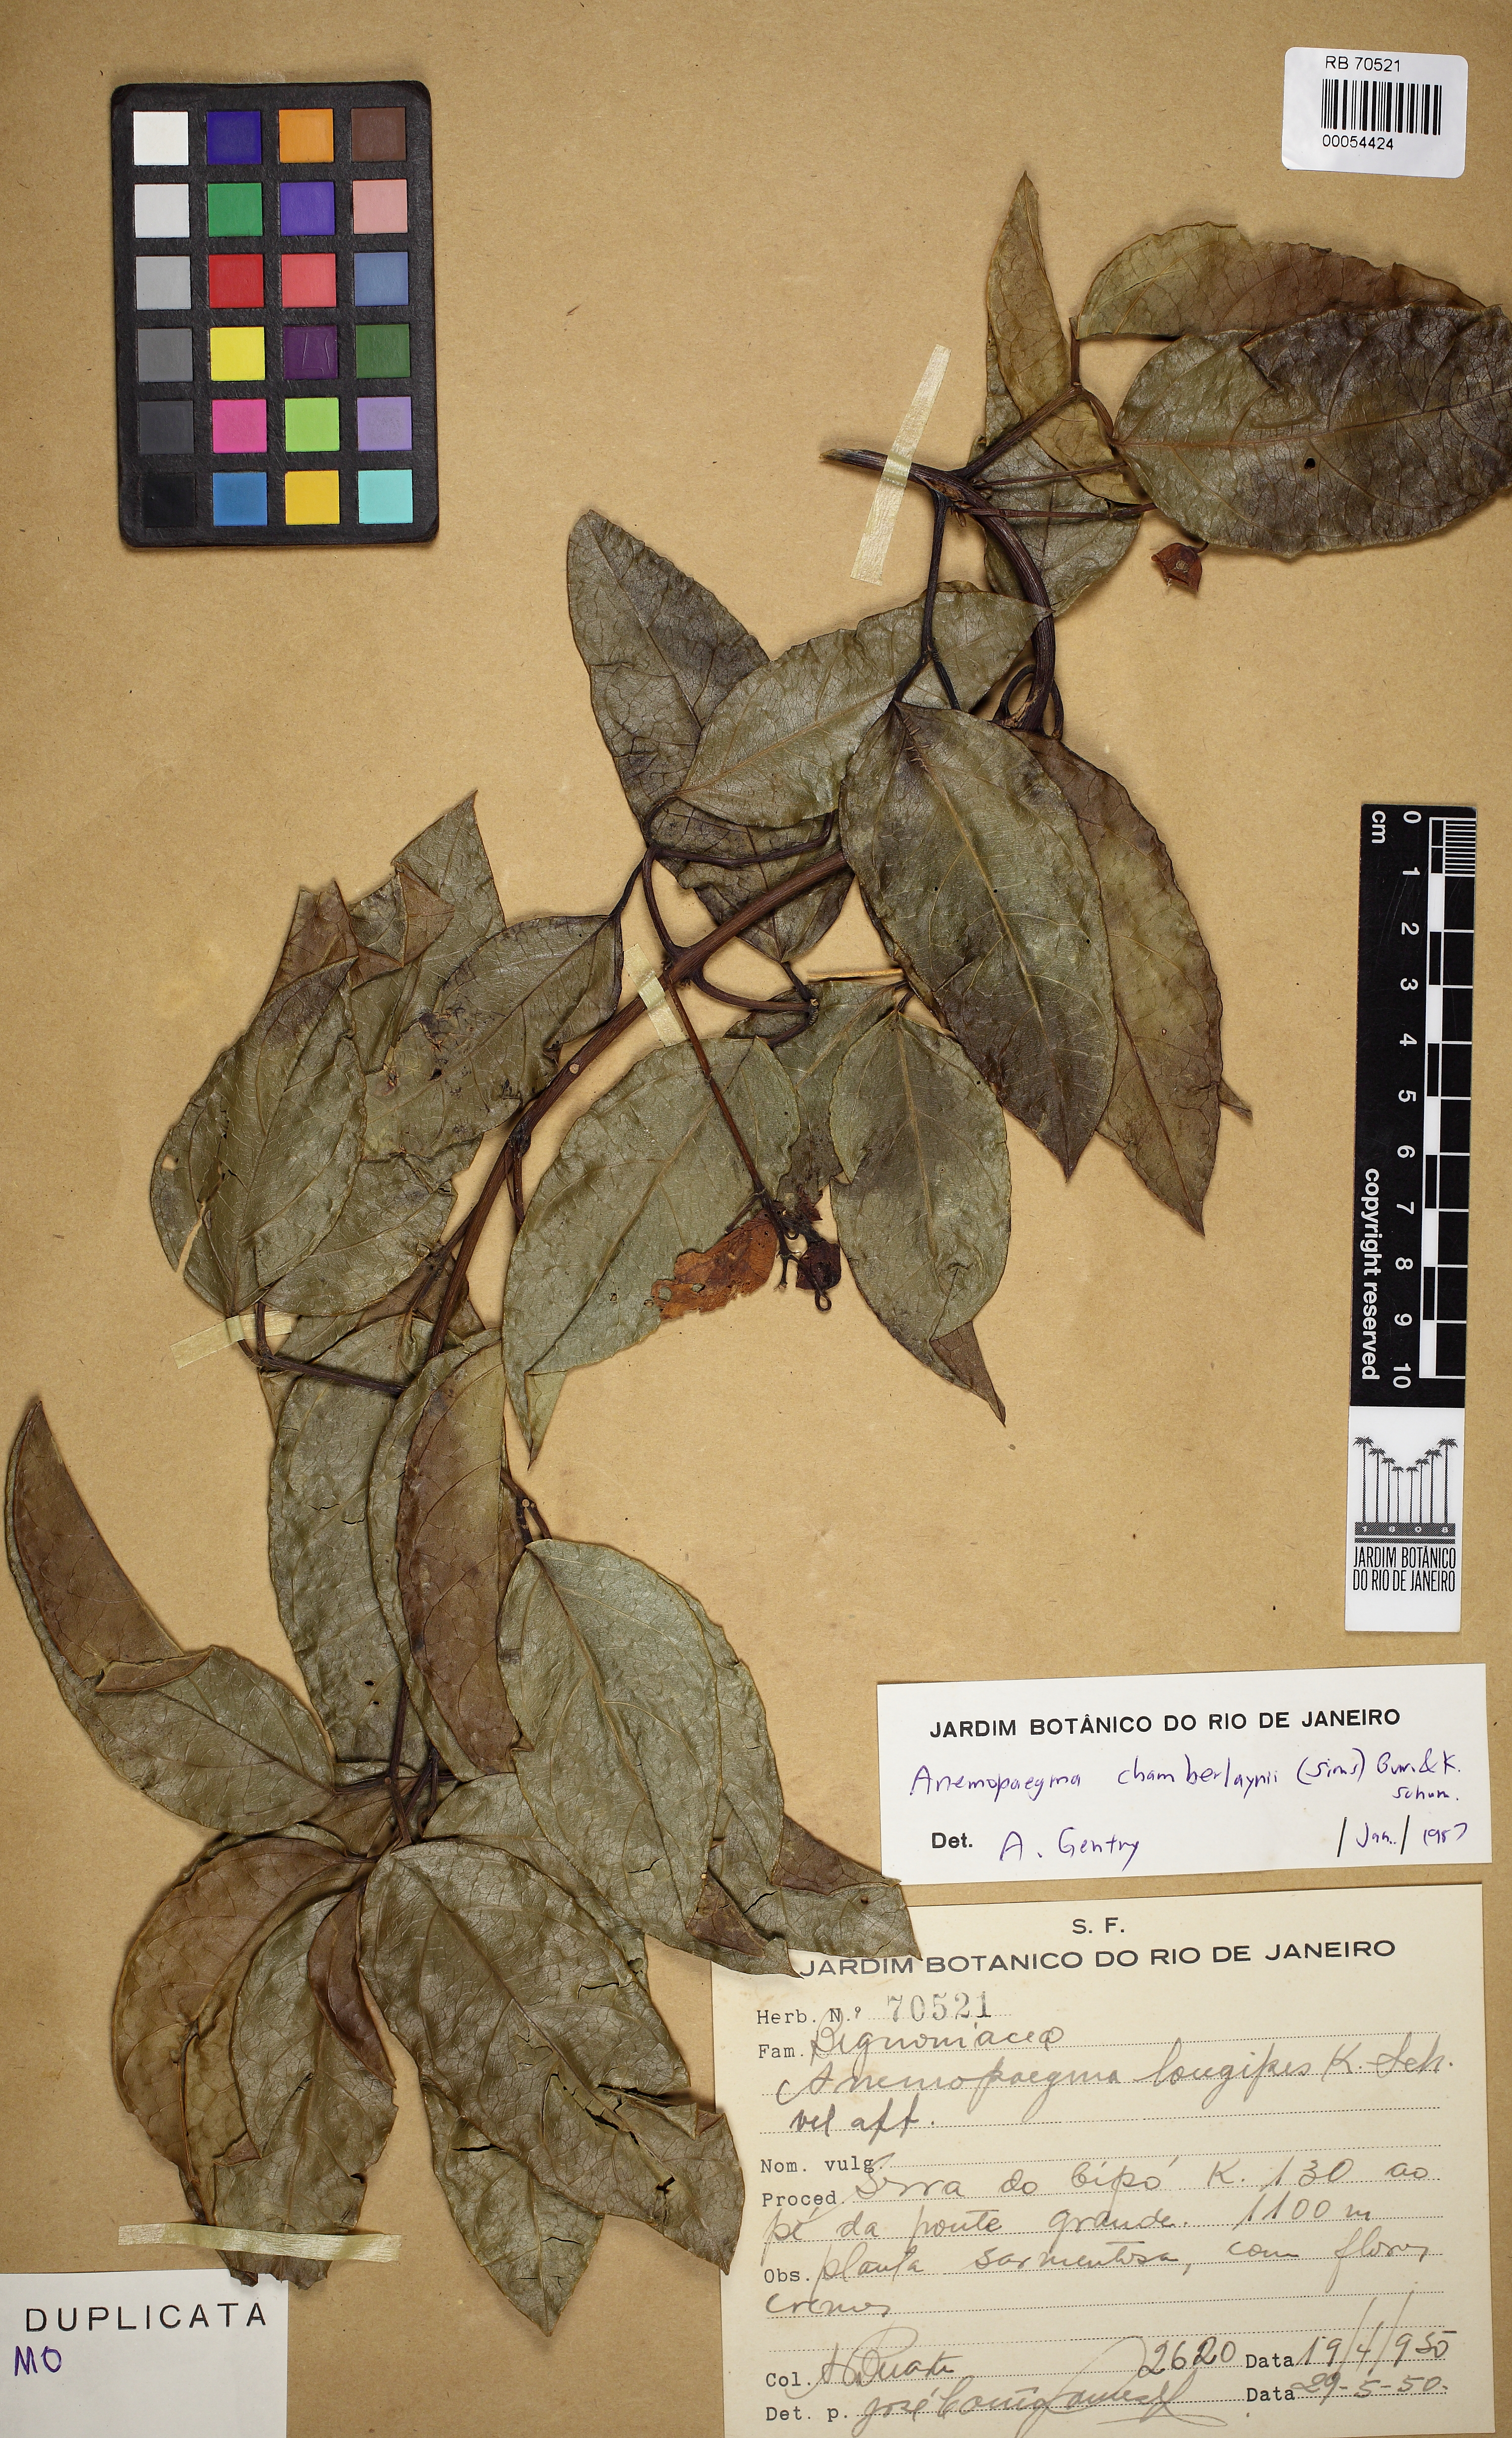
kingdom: Plantae
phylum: Tracheophyta
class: Magnoliopsida
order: Lamiales
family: Bignoniaceae
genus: Anemopaegma
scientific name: Anemopaegma chamberlaynii
